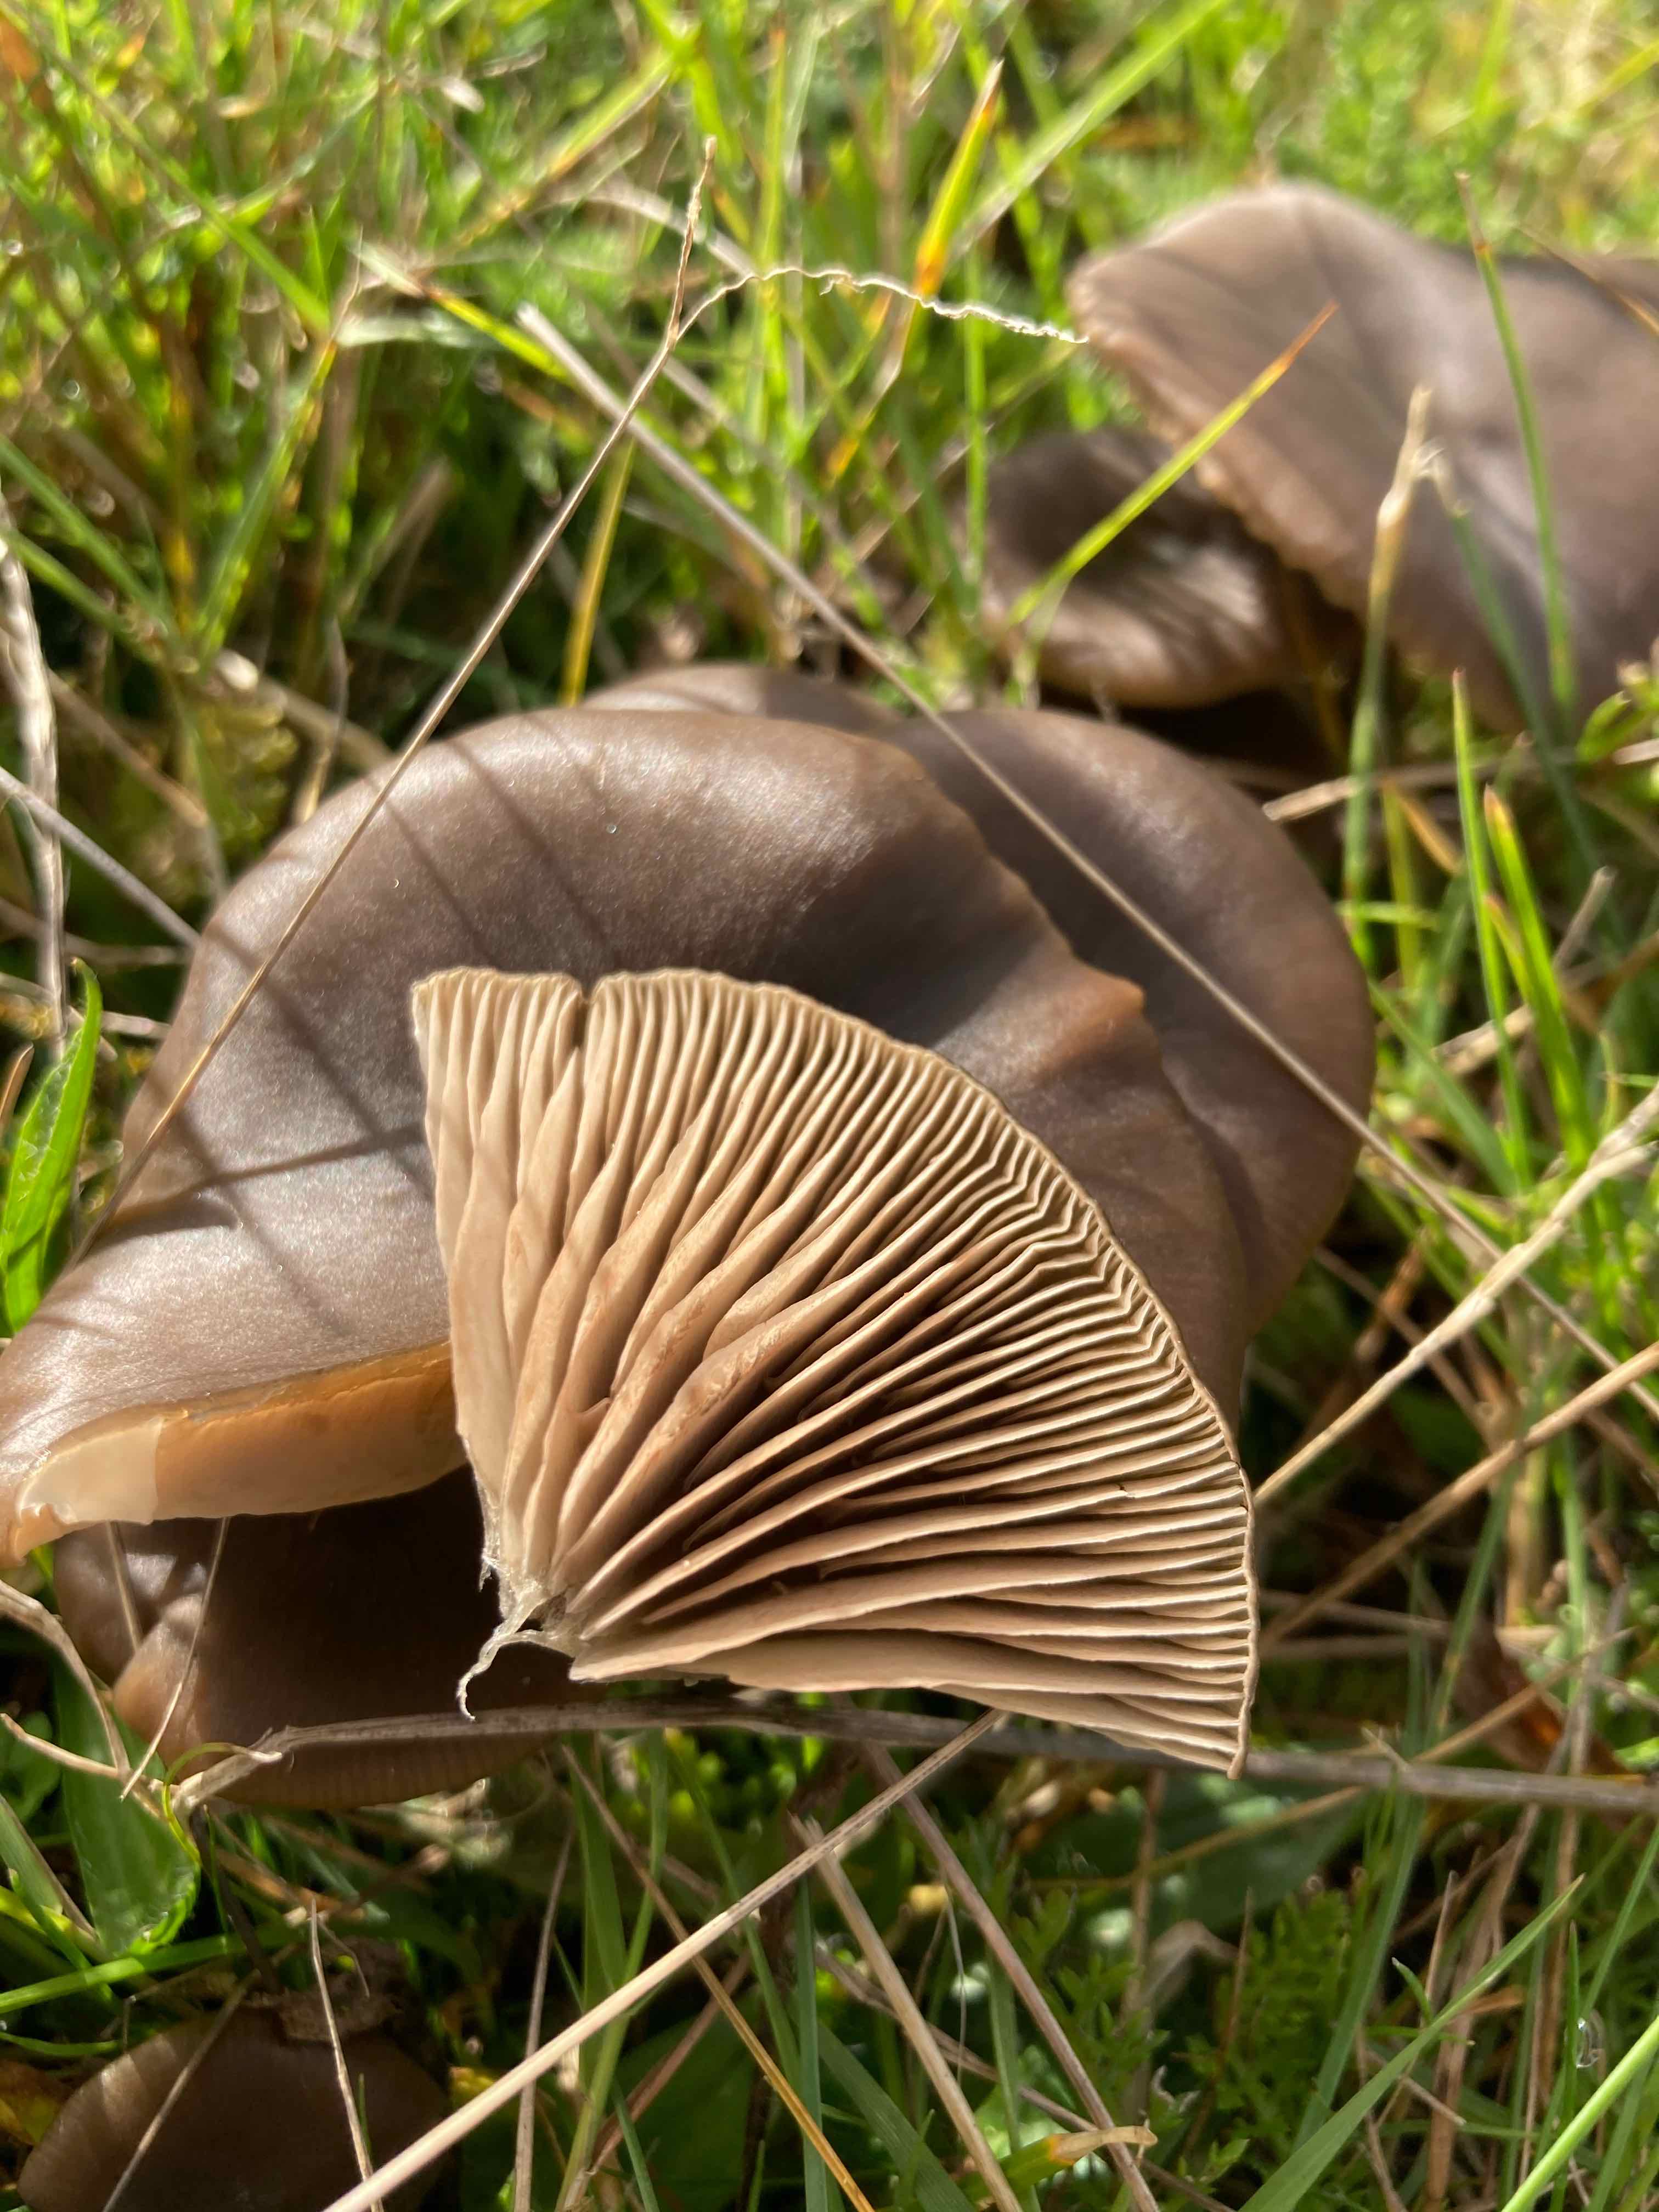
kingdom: Fungi
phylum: Basidiomycota
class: Agaricomycetes
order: Agaricales
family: Entolomataceae
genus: Entoloma
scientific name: Entoloma sericeum
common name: silkeglinsende rødblad
